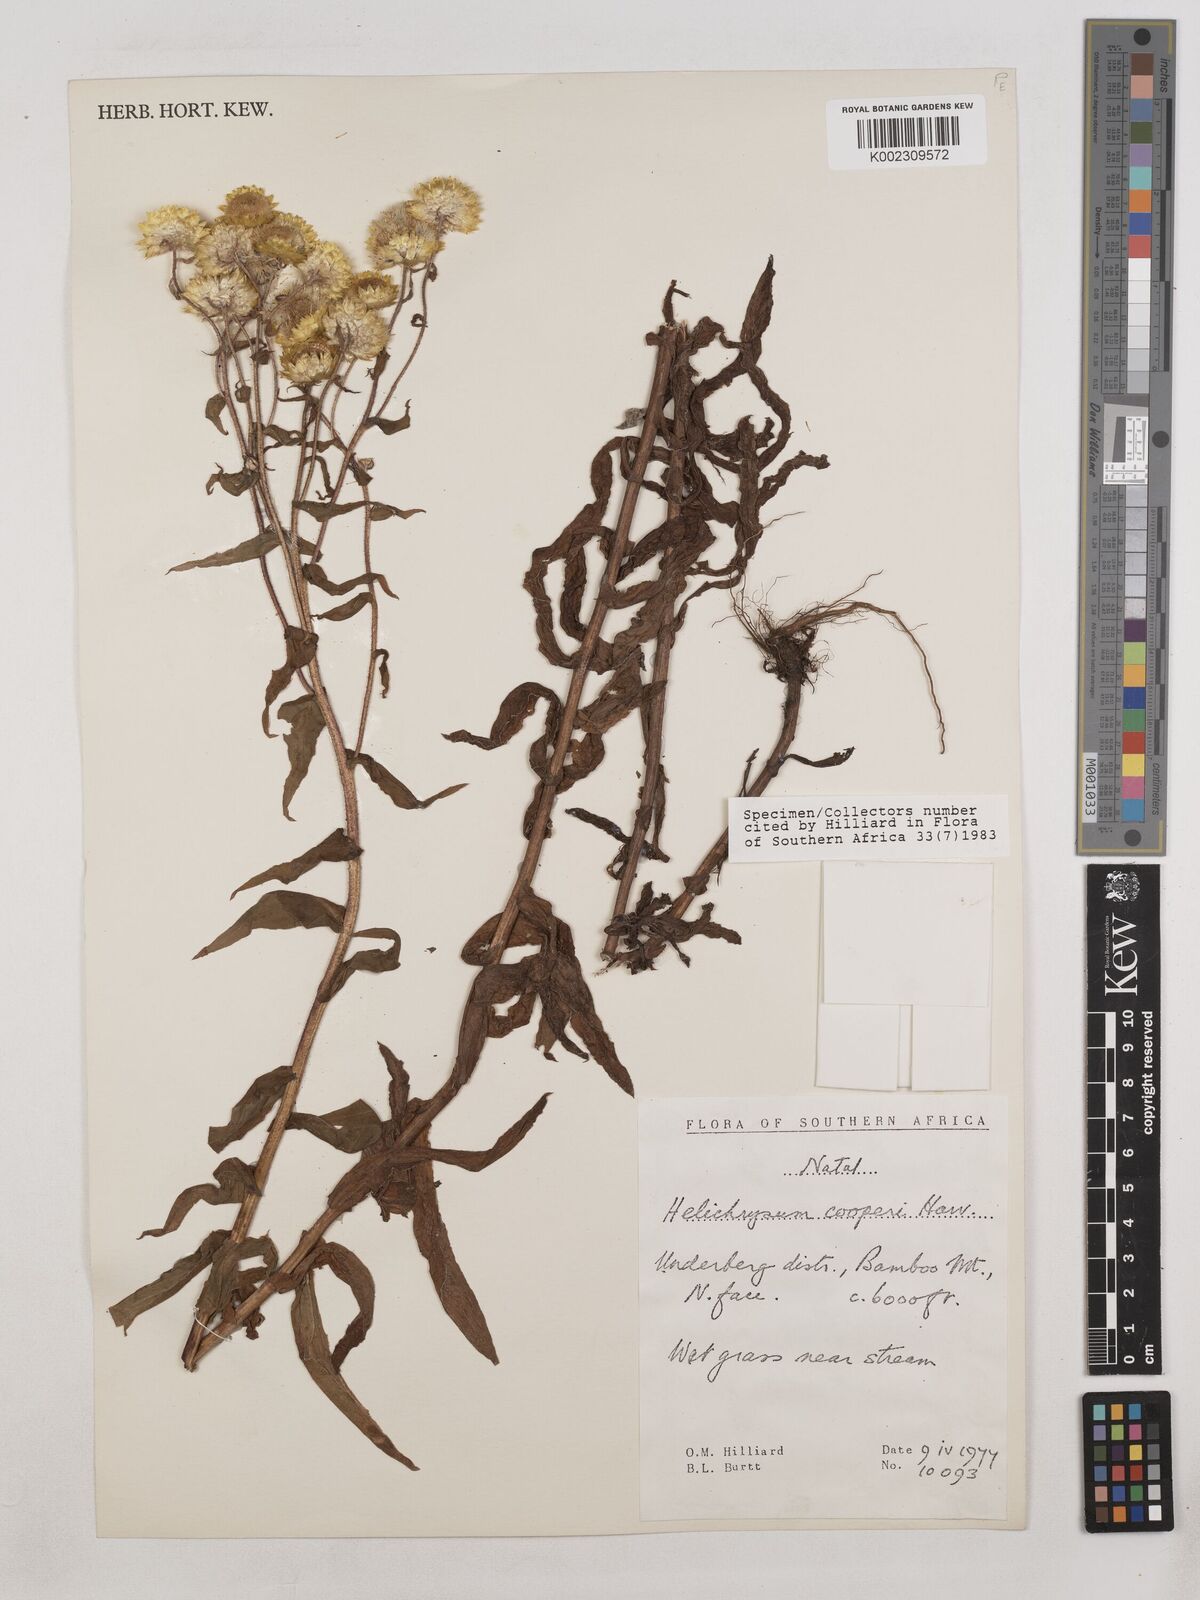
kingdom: Plantae
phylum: Tracheophyta
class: Magnoliopsida
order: Asterales
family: Asteraceae
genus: Helichrysum
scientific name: Helichrysum cooperi
